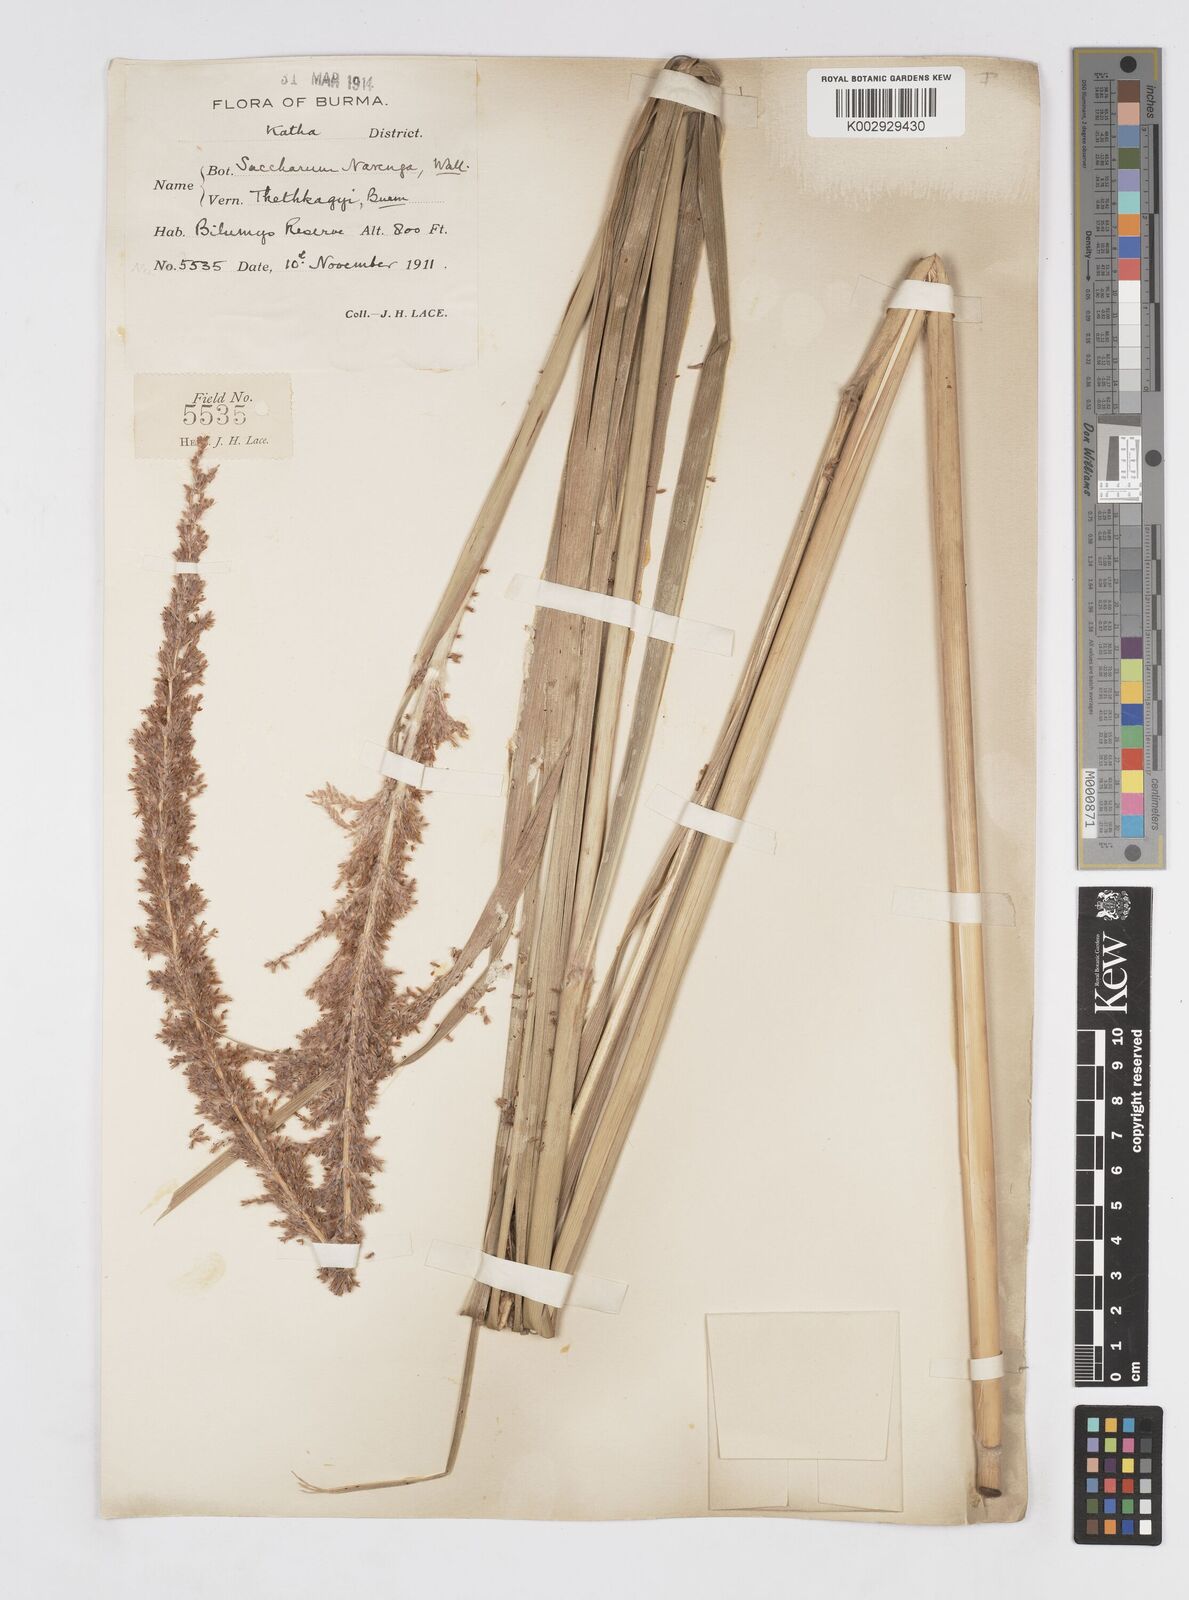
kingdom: Plantae
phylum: Tracheophyta
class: Liliopsida
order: Poales
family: Poaceae
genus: Narenga
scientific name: Narenga porphyrocoma
